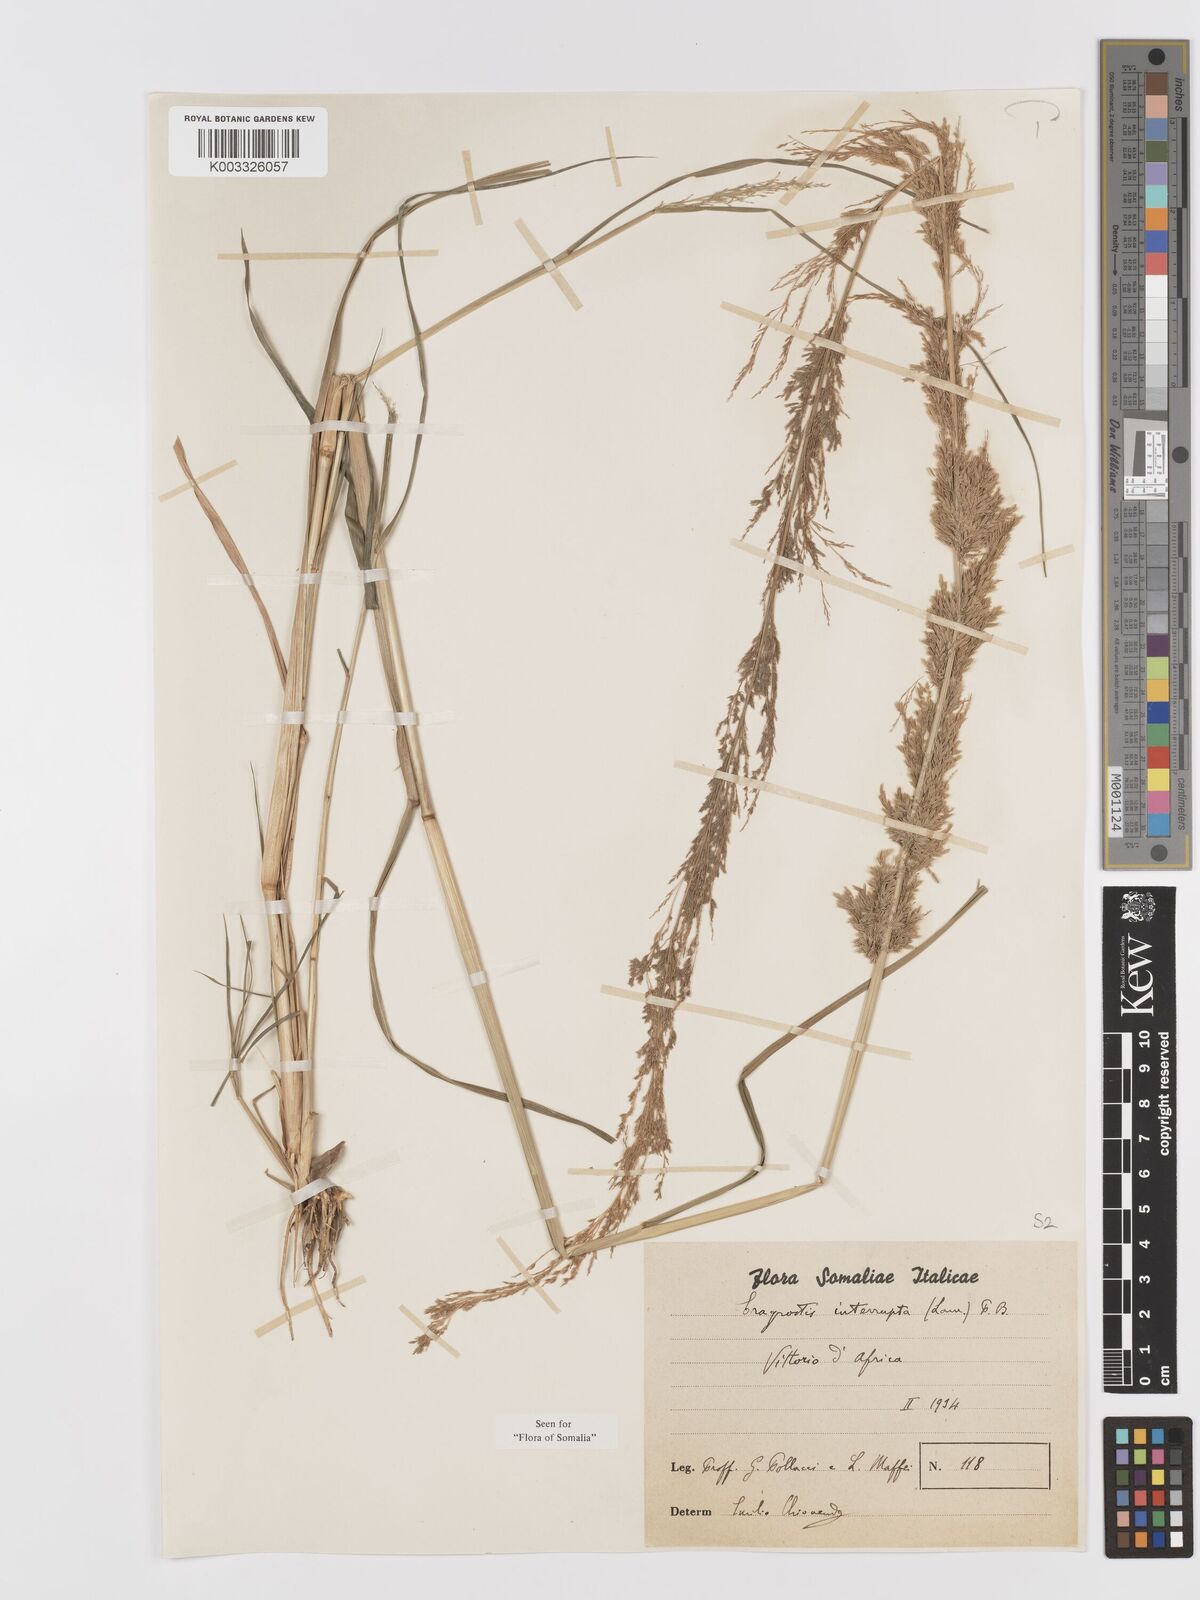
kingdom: Plantae
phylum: Tracheophyta
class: Liliopsida
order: Poales
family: Poaceae
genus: Eragrostis
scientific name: Eragrostis japonica
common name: Pond lovegrass
